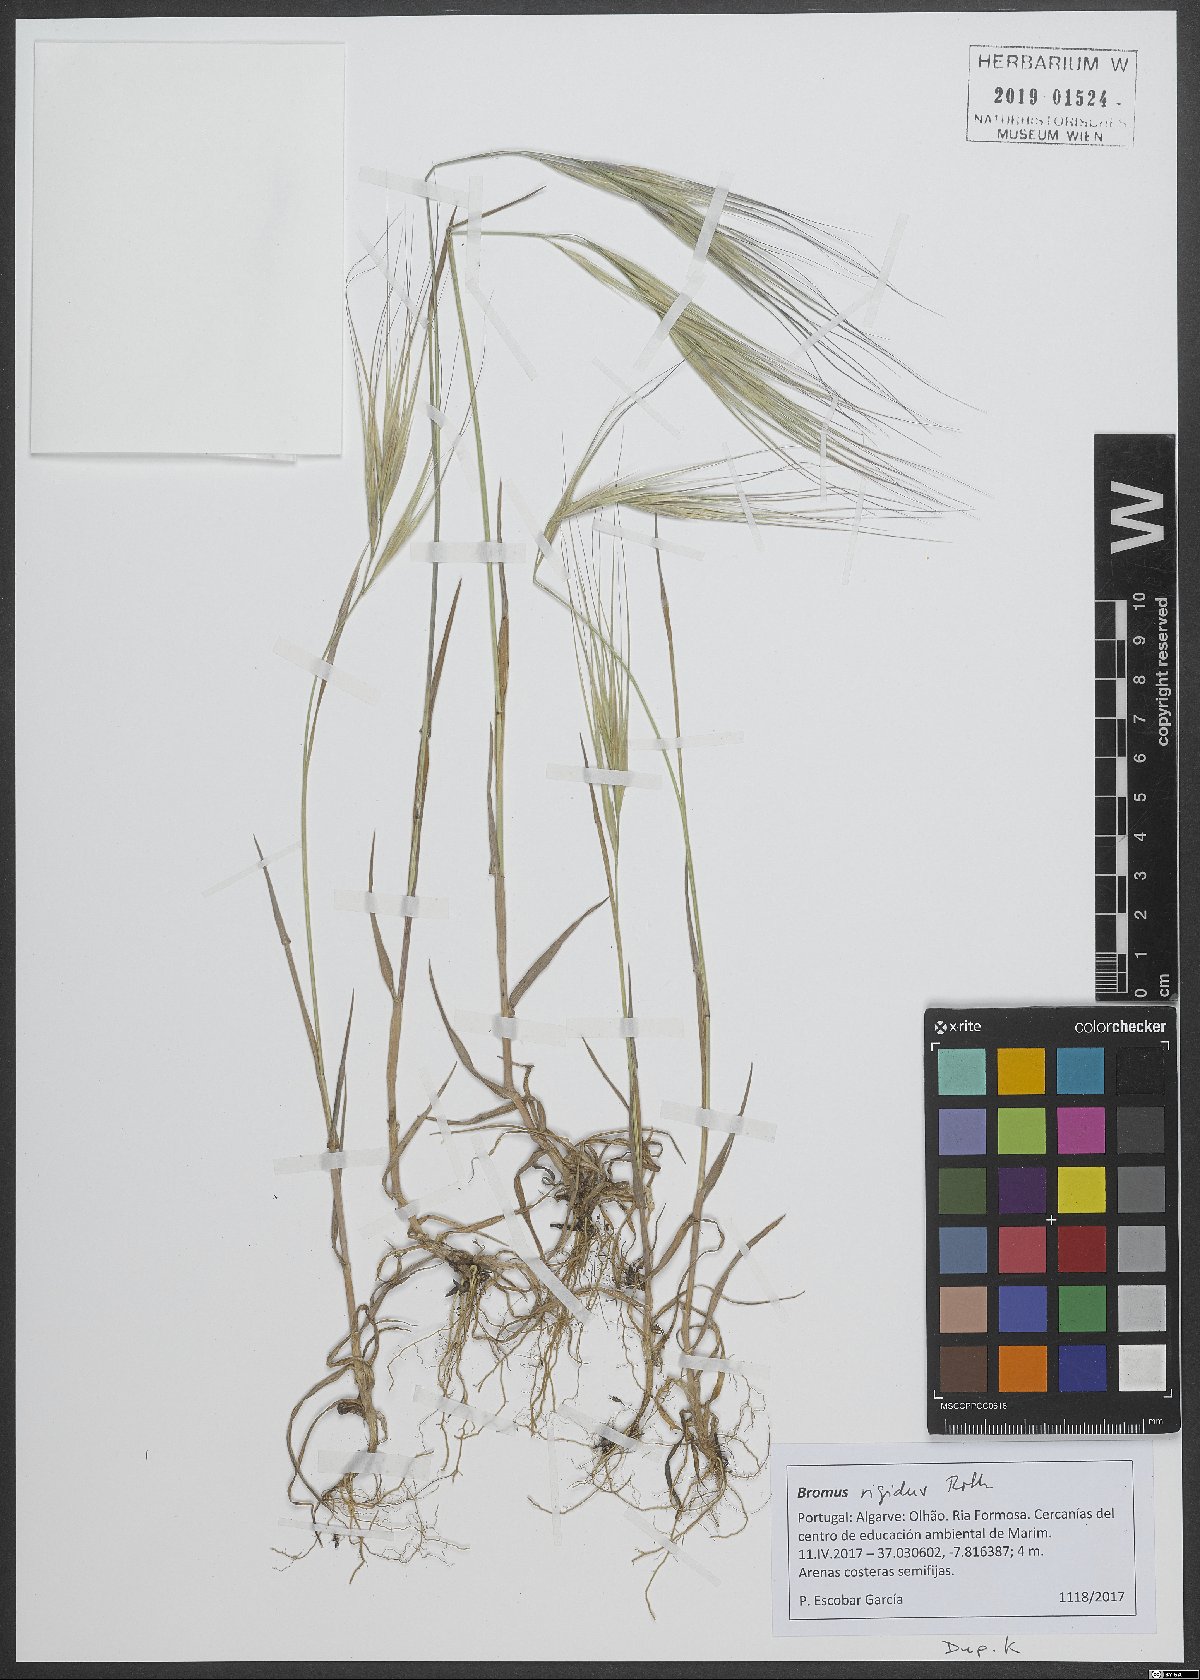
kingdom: Plantae
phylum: Tracheophyta
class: Liliopsida
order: Poales
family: Poaceae
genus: Bromus
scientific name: Bromus rigidus
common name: Ripgut brome
